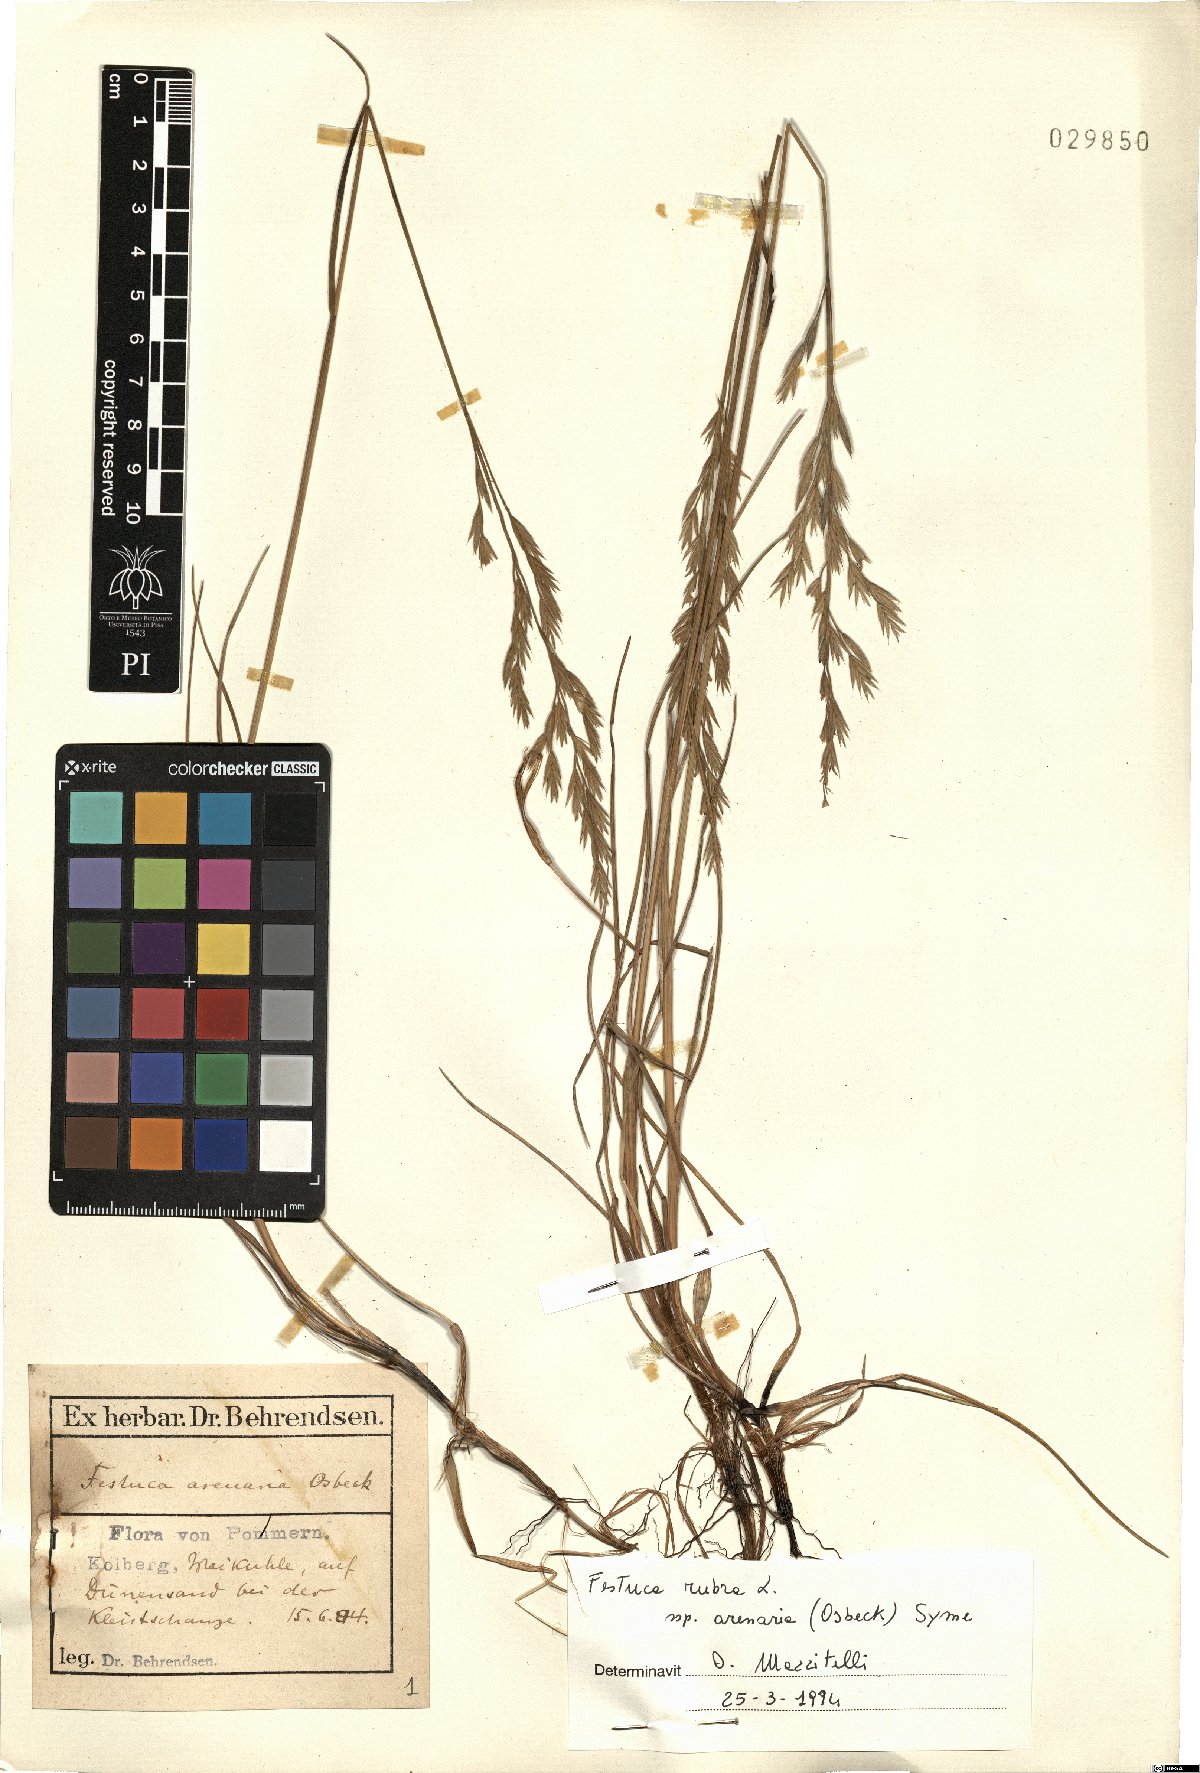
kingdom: Plantae
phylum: Tracheophyta
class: Liliopsida
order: Poales
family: Poaceae
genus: Festuca
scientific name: Festuca rubra
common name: Red fescue
